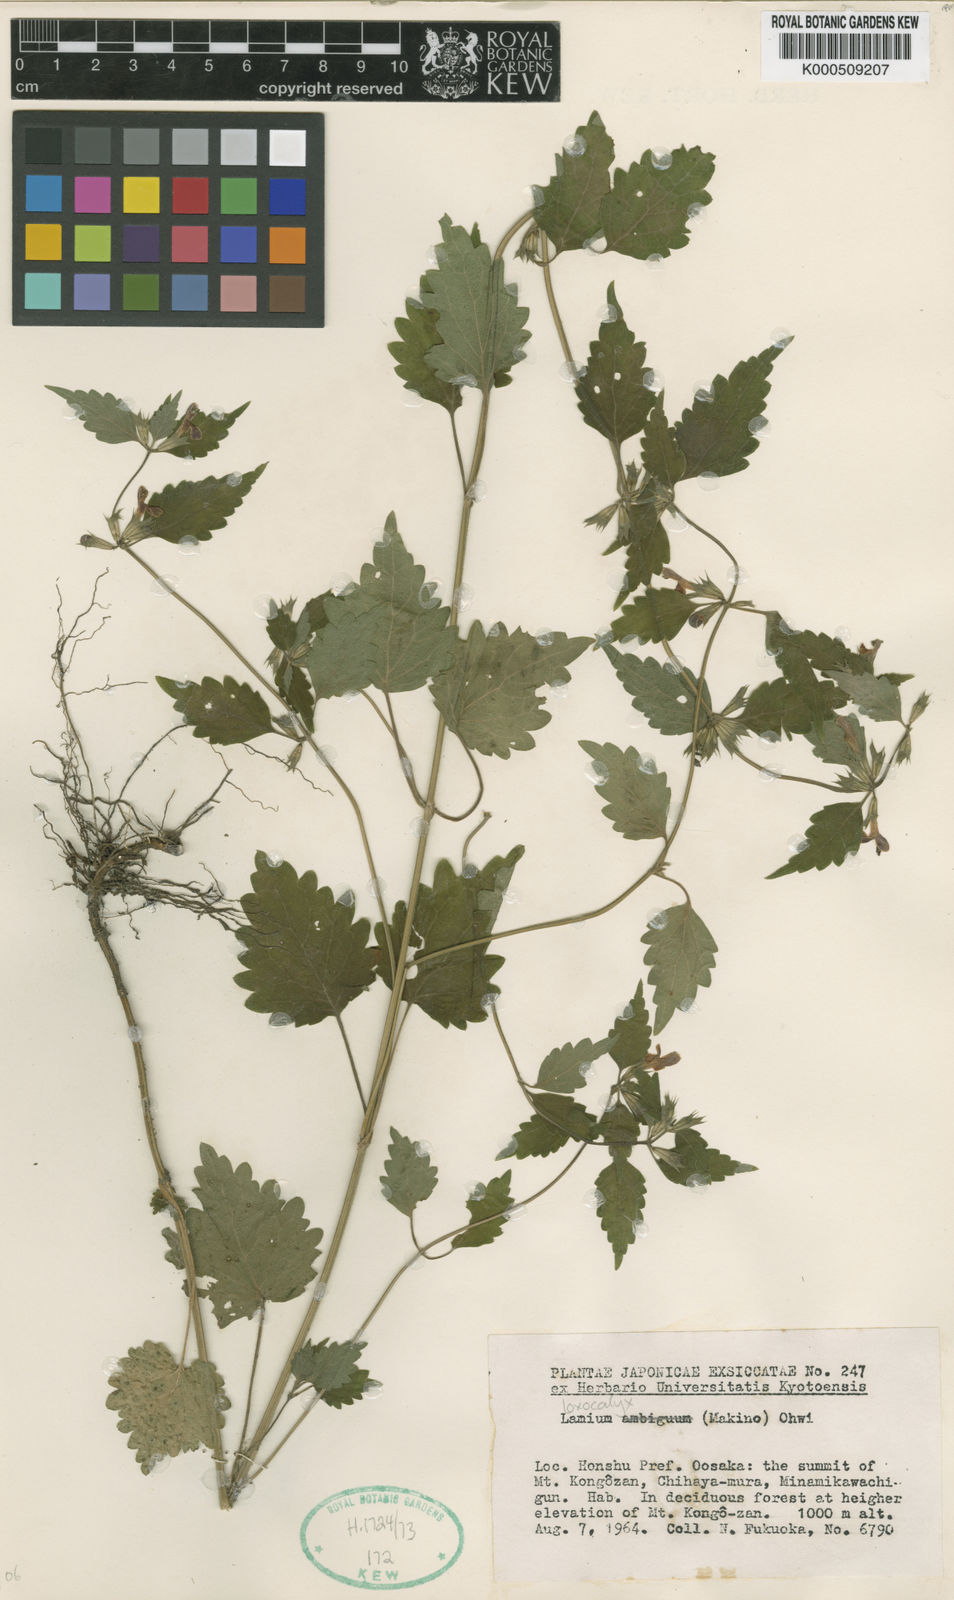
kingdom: Plantae
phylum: Tracheophyta
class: Magnoliopsida
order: Lamiales
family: Lamiaceae
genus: Loxocalyx
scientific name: Loxocalyx ambiguus
